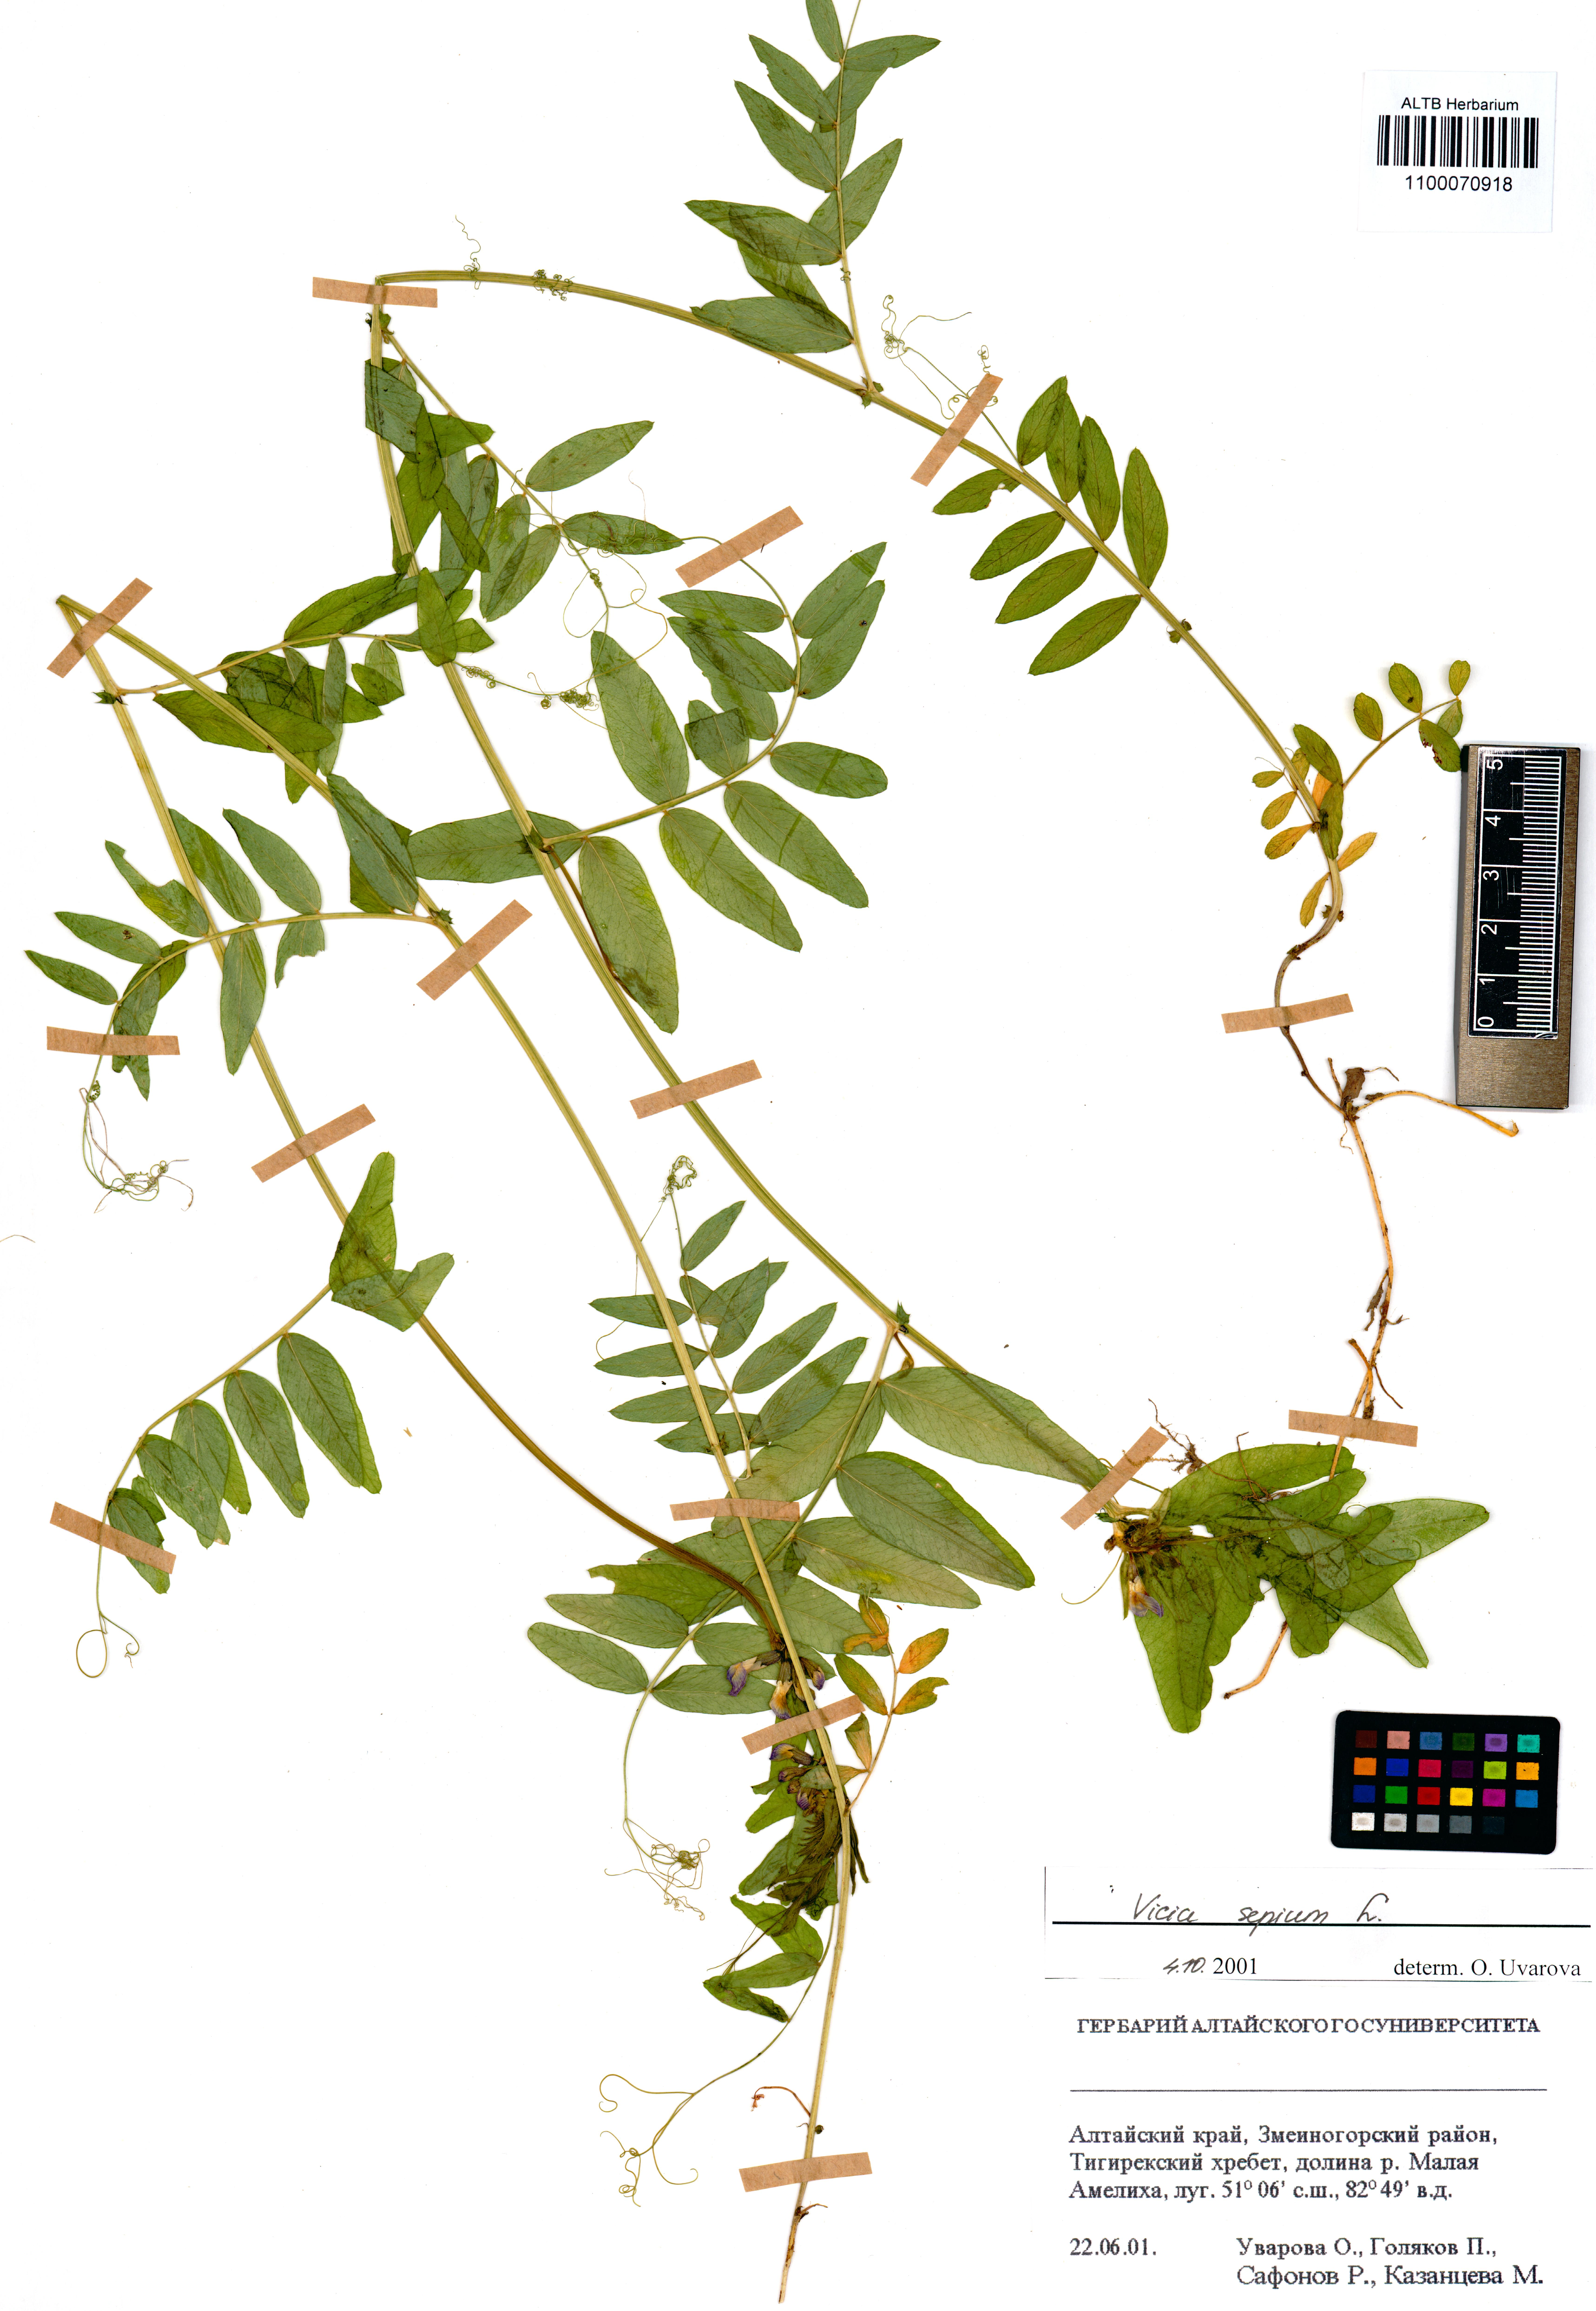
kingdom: Plantae
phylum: Tracheophyta
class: Magnoliopsida
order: Fabales
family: Fabaceae
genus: Vicia
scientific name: Vicia sepium
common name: Bush vetch
